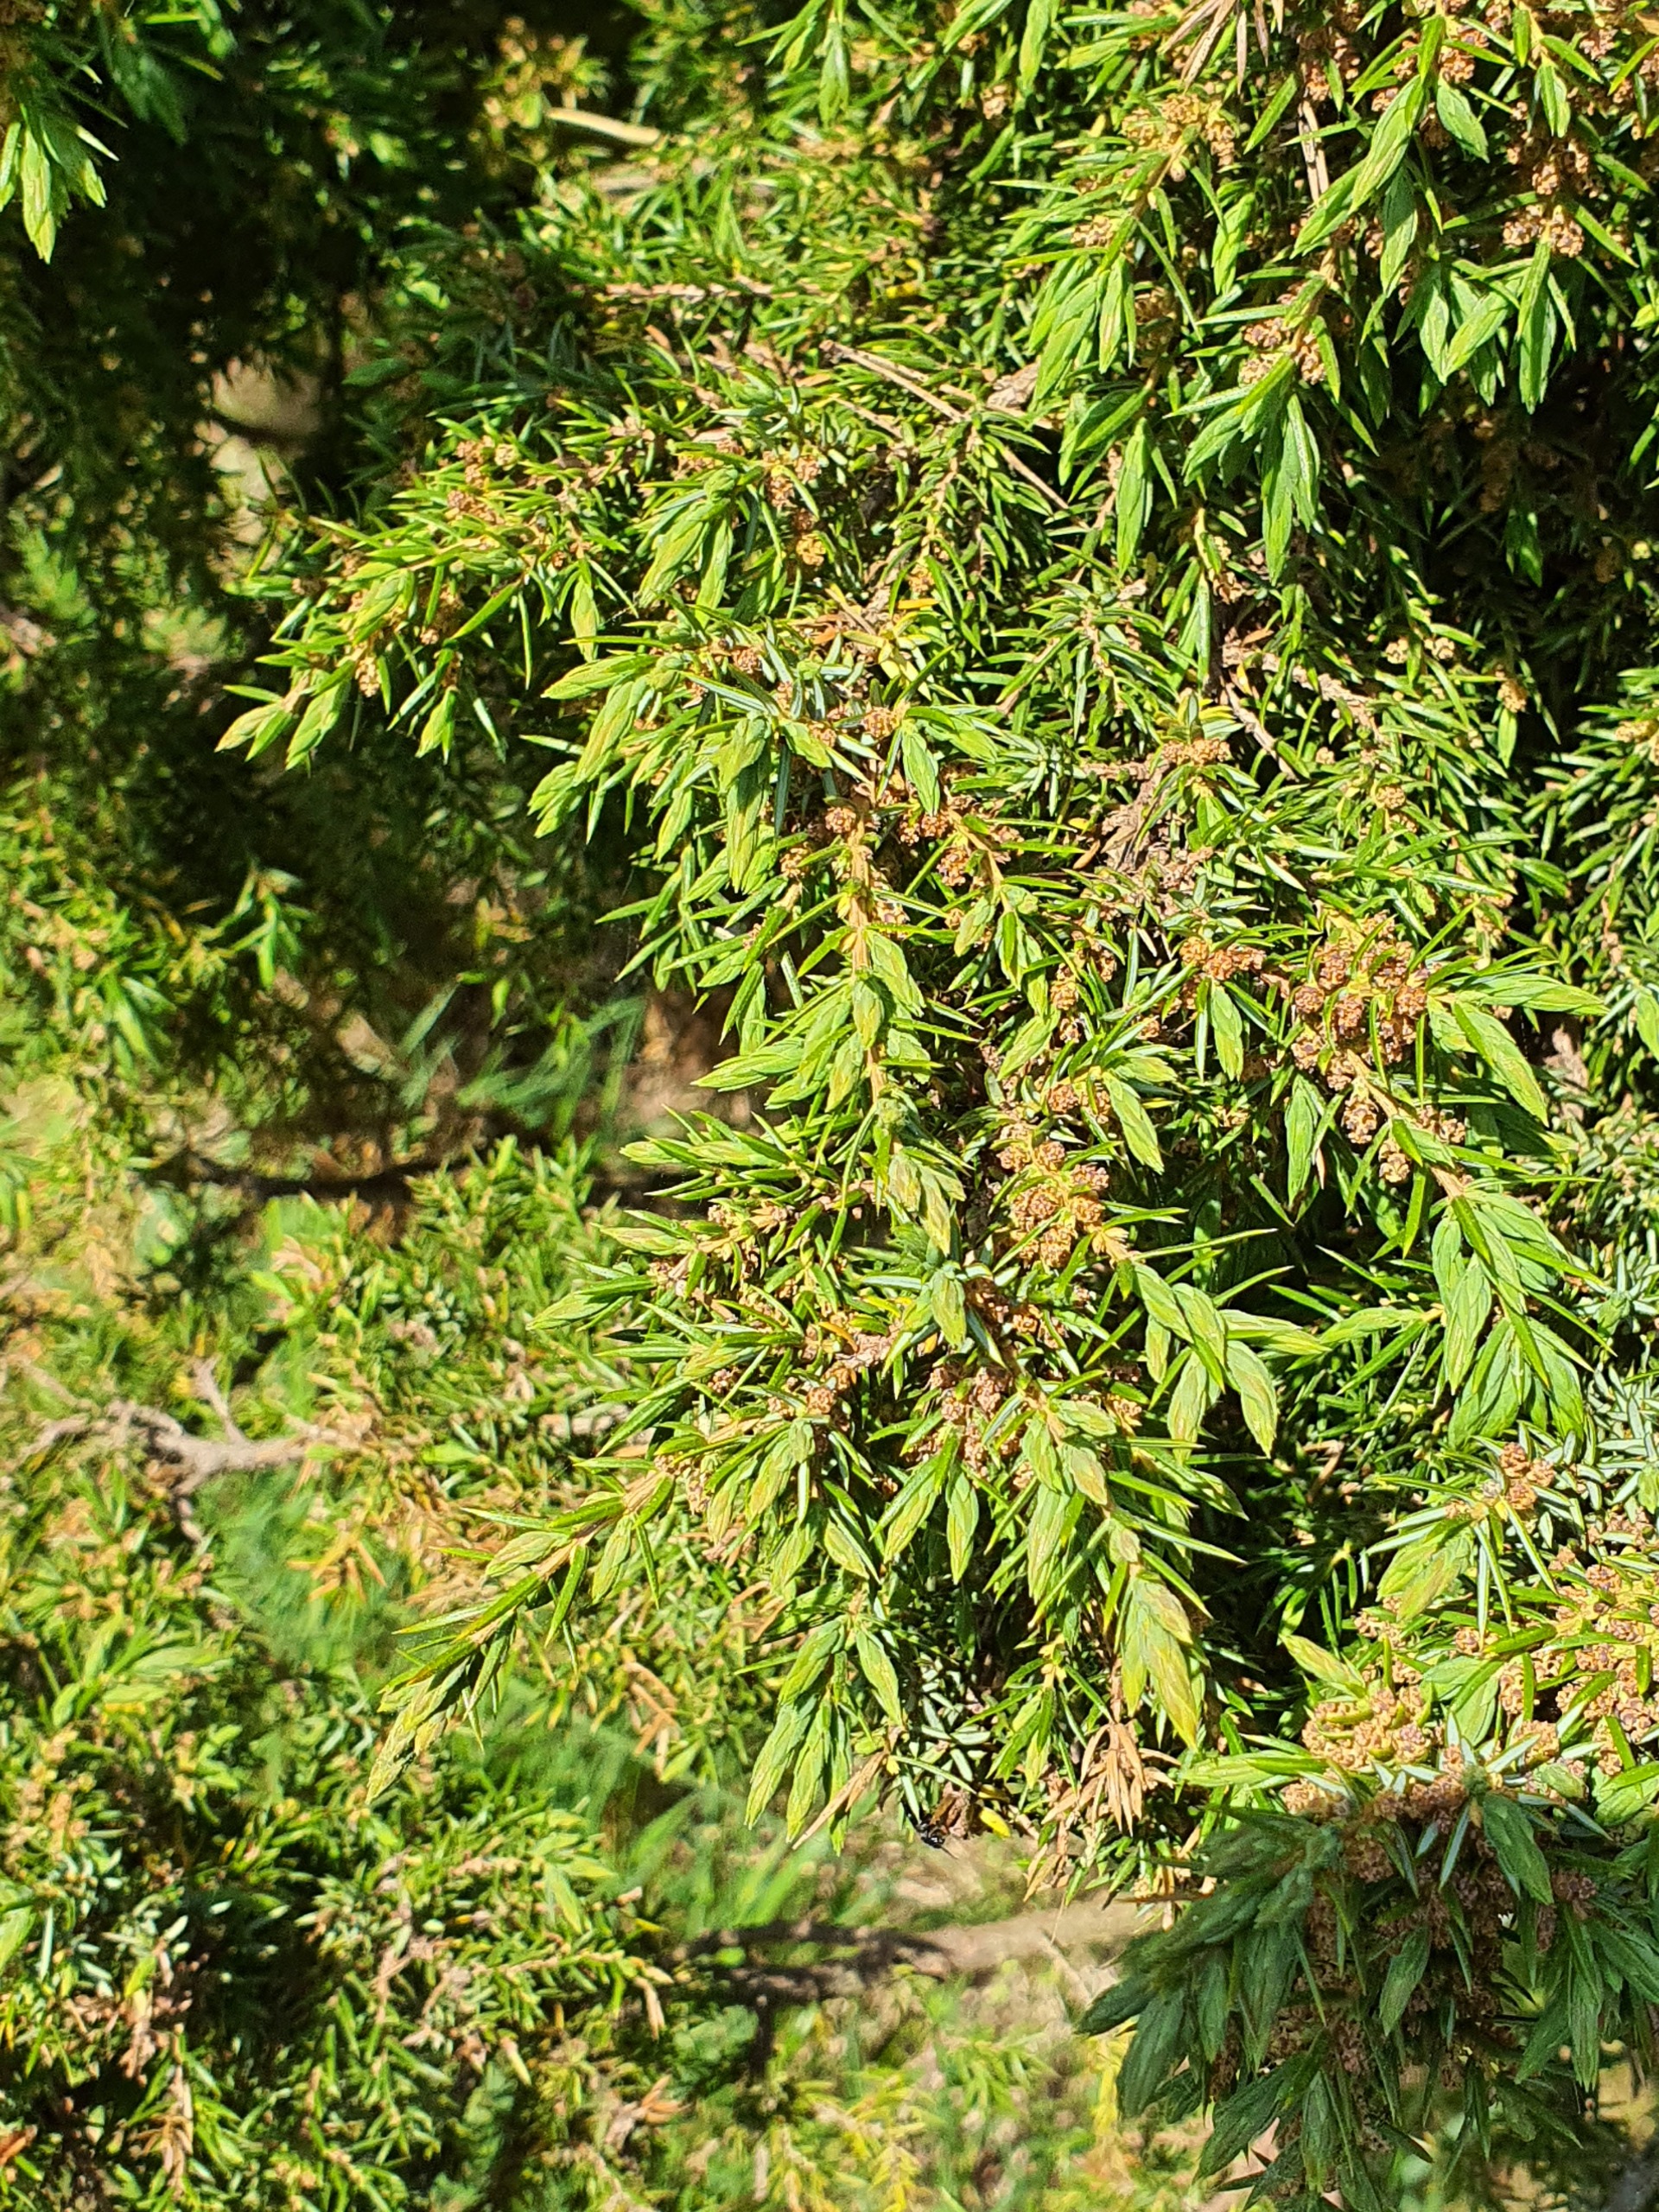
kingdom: Plantae
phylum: Tracheophyta
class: Pinopsida
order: Pinales
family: Cupressaceae
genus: Juniperus
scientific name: Juniperus communis
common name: Almindelig ene
